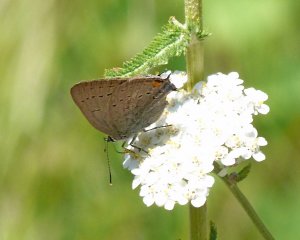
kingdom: Animalia
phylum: Arthropoda
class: Insecta
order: Lepidoptera
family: Lycaenidae
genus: Strymon
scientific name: Strymon acadica
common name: California Hairstreak
